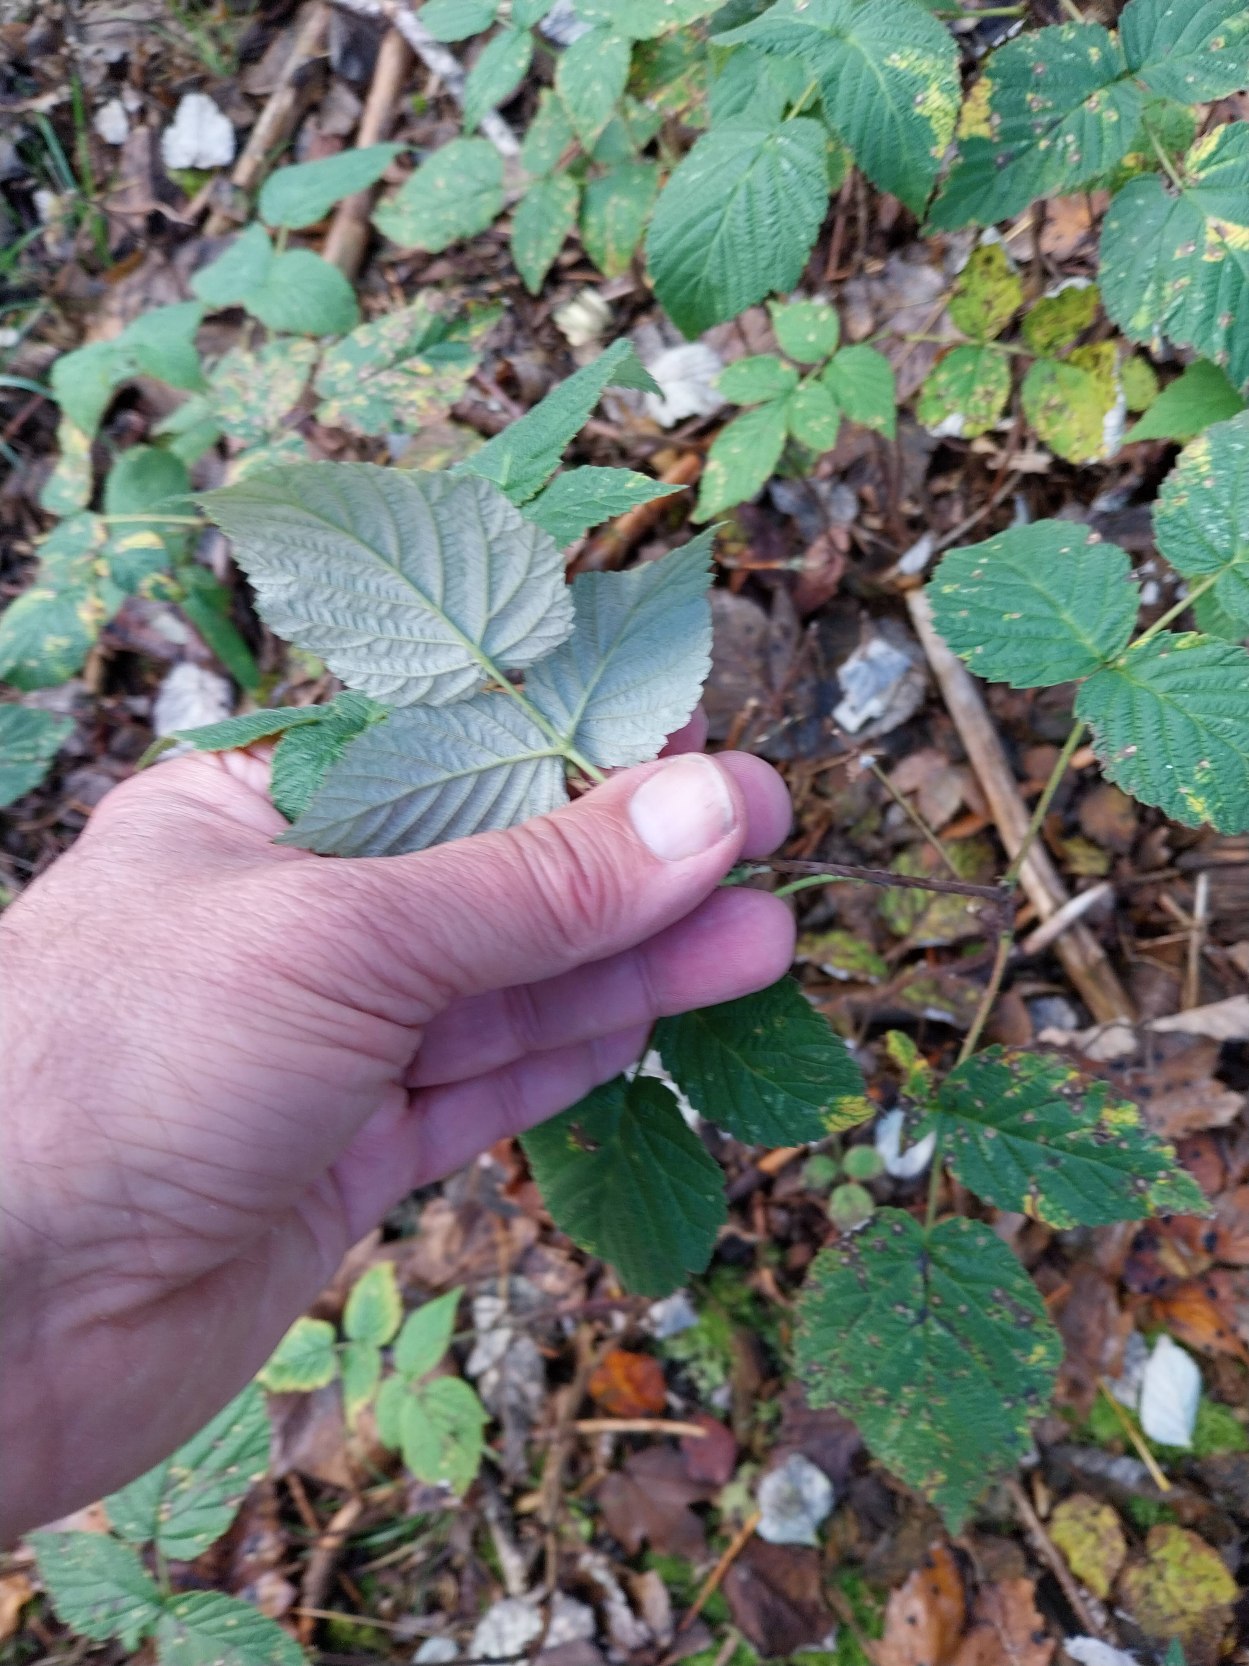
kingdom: Plantae
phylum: Tracheophyta
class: Magnoliopsida
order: Rosales
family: Rosaceae
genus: Rubus
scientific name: Rubus idaeus
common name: Hindbær
